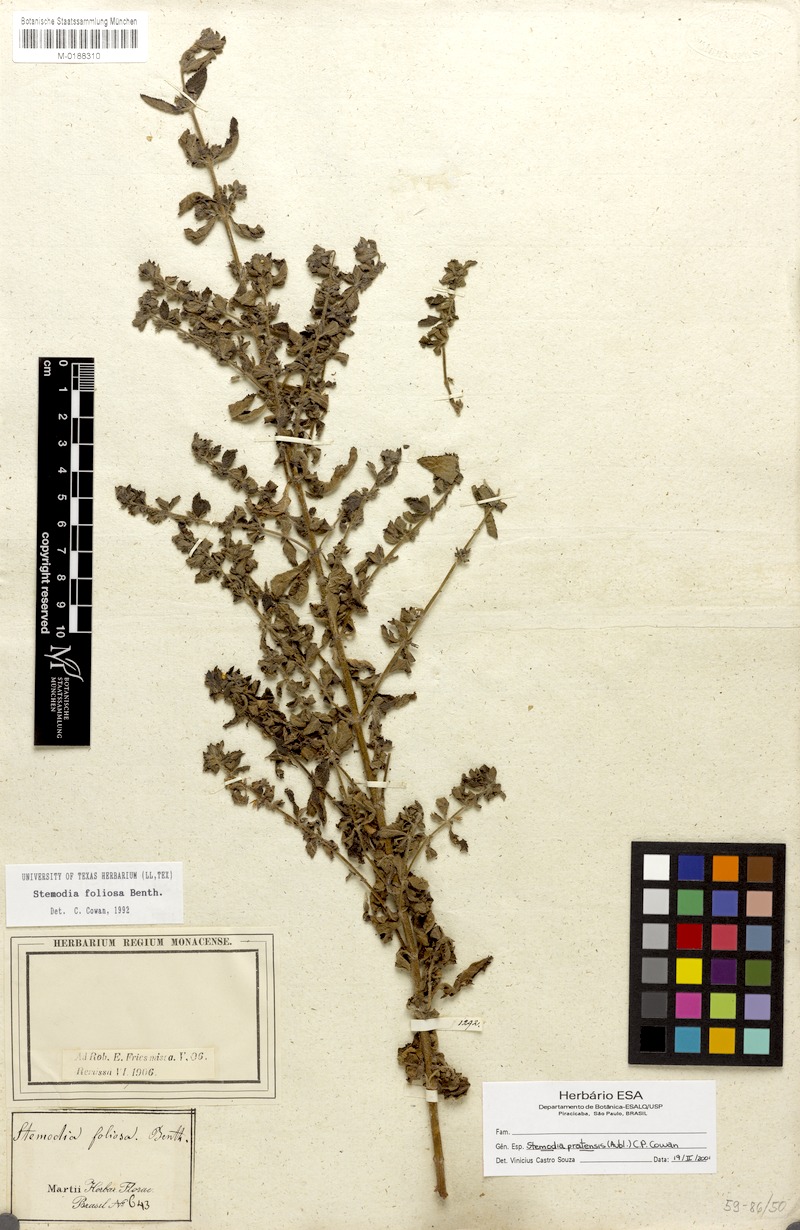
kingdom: Plantae
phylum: Tracheophyta
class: Magnoliopsida
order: Lamiales
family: Plantaginaceae
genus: Matourea
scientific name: Matourea pratensis
